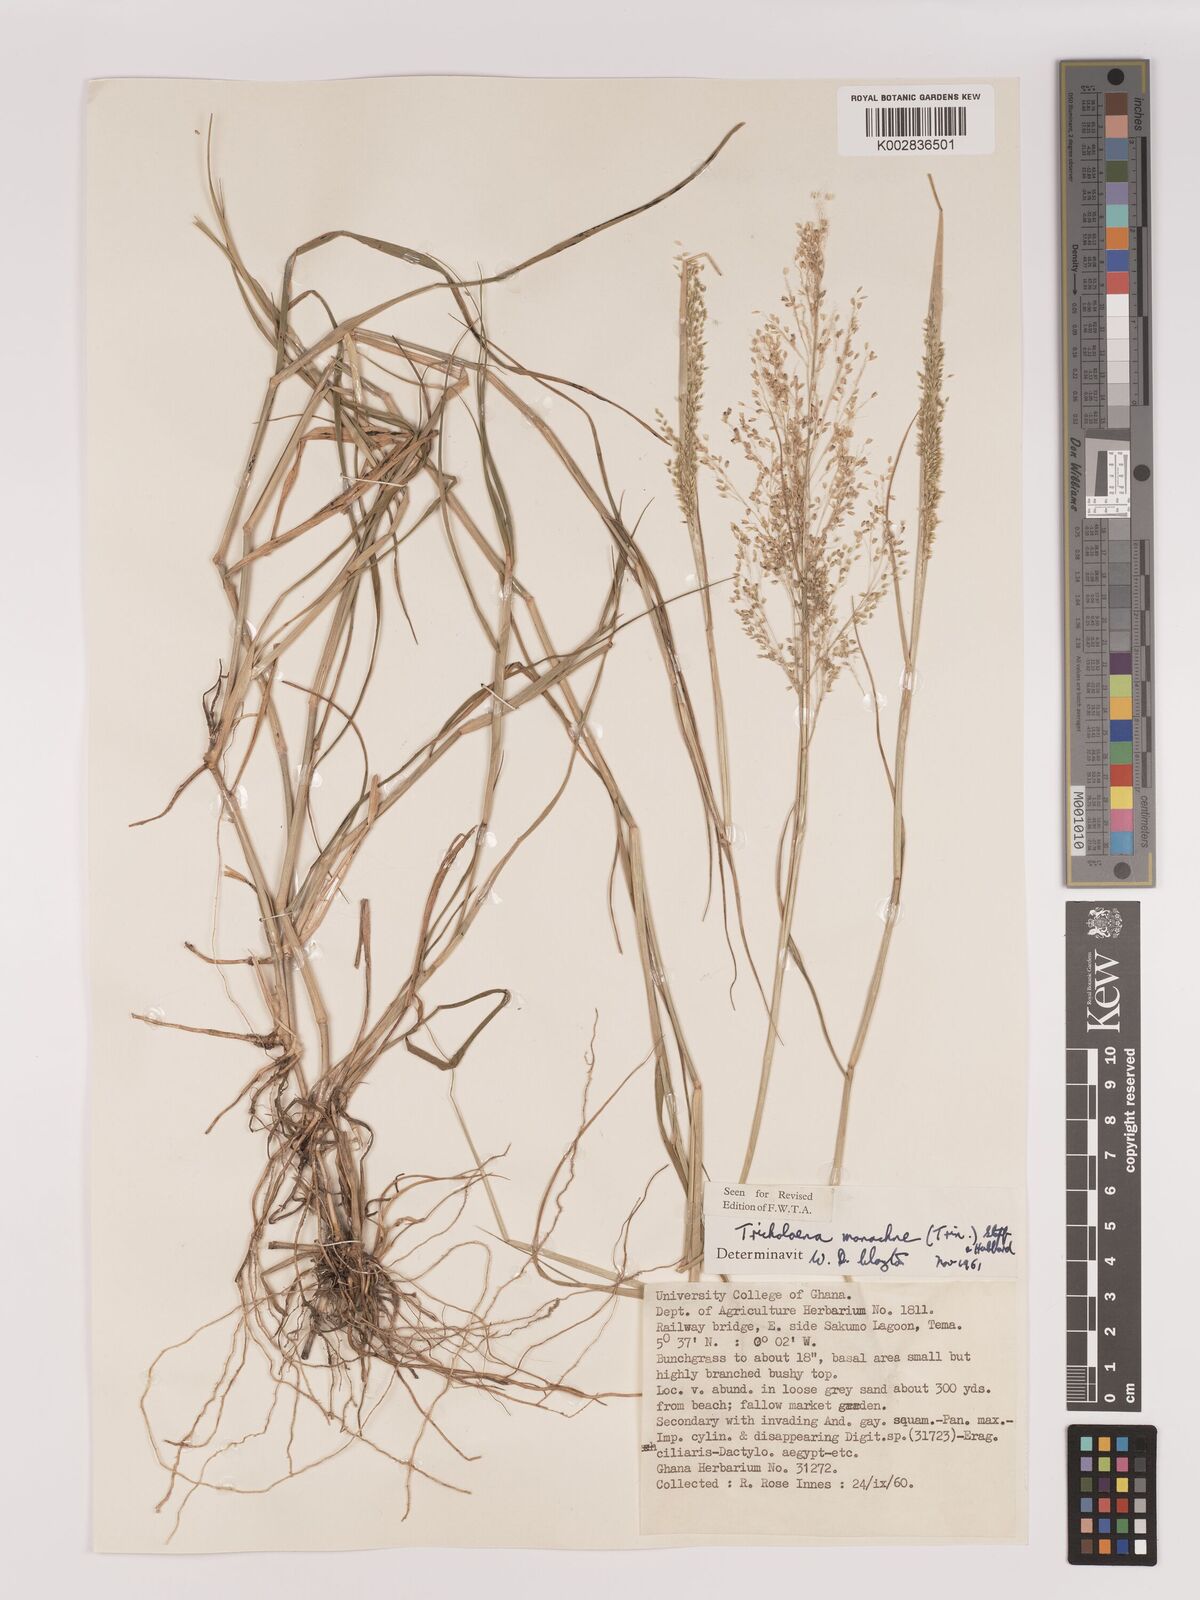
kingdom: Plantae
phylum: Tracheophyta
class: Liliopsida
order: Poales
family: Poaceae
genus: Tricholaena
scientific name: Tricholaena monachne
